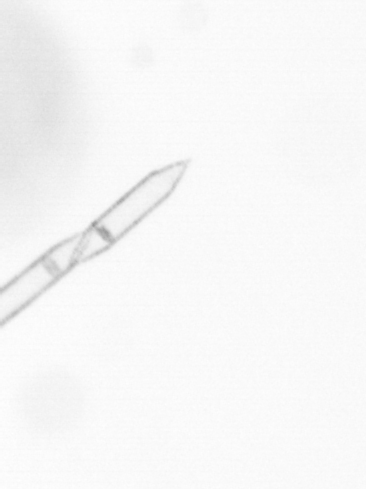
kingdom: Chromista
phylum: Ochrophyta
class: Bacillariophyceae
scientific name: Bacillariophyceae
